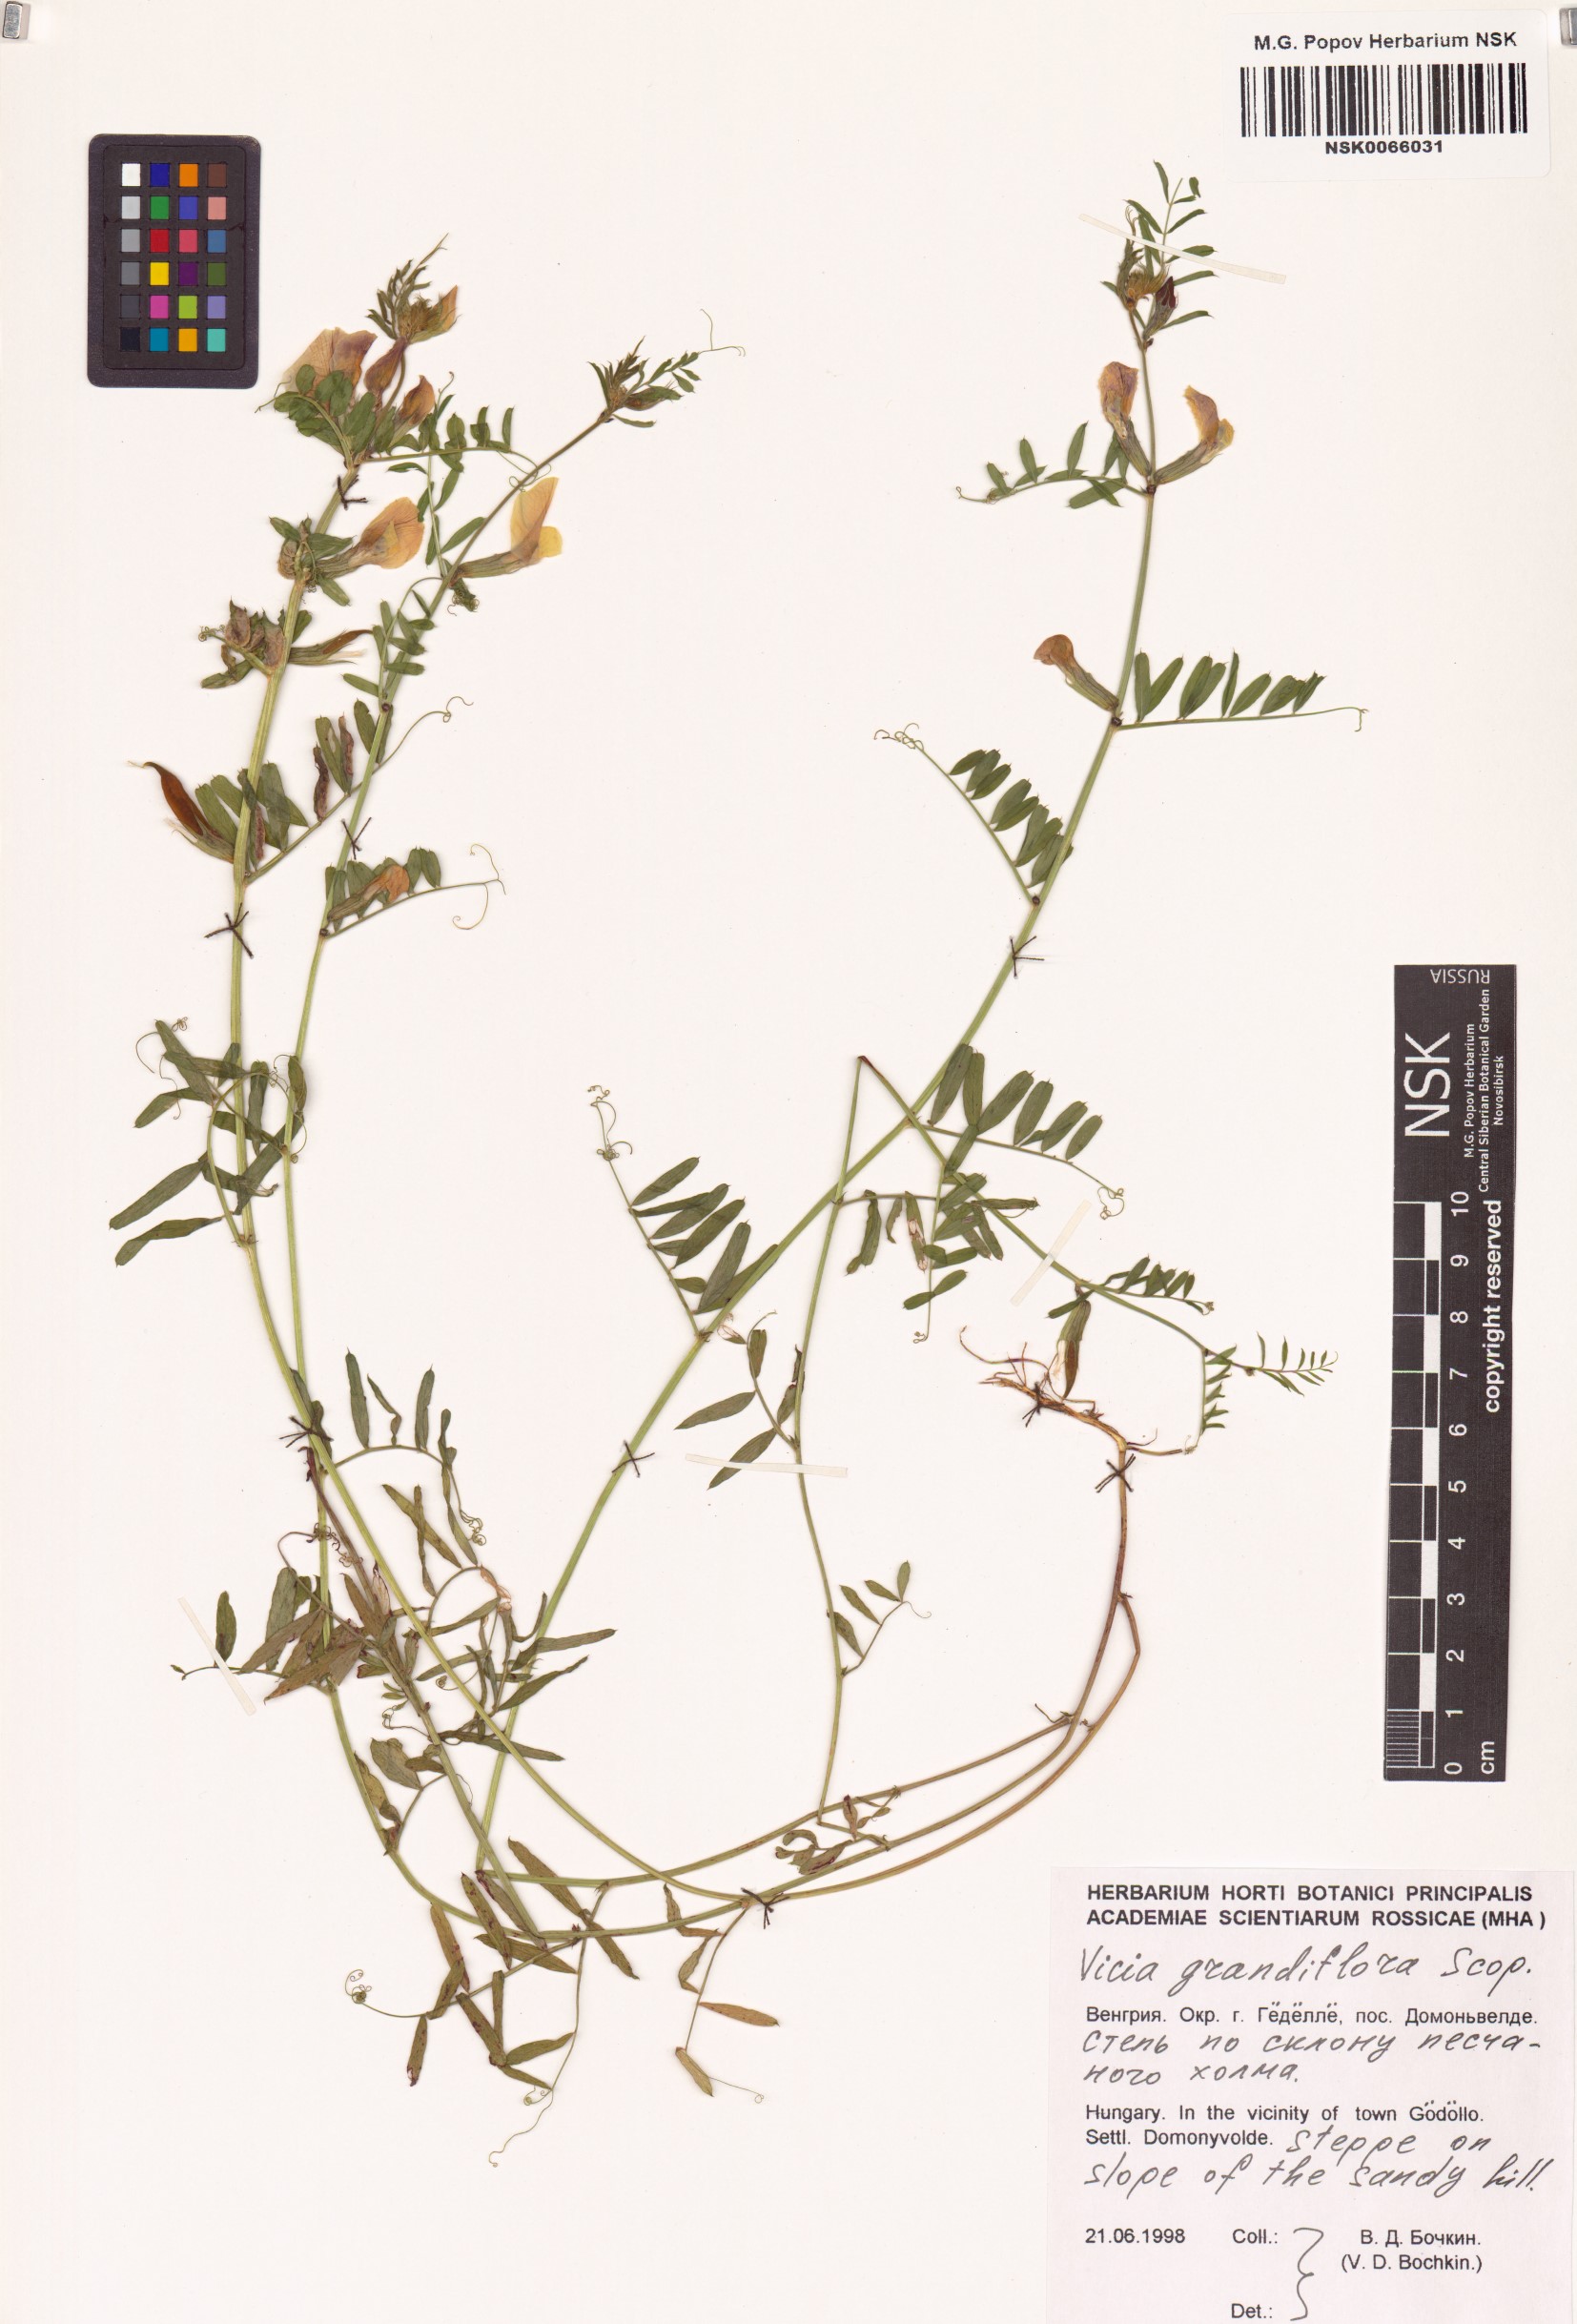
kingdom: Plantae
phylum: Tracheophyta
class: Magnoliopsida
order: Fabales
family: Fabaceae
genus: Vicia
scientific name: Vicia grandiflora
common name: Large yellow vetch
